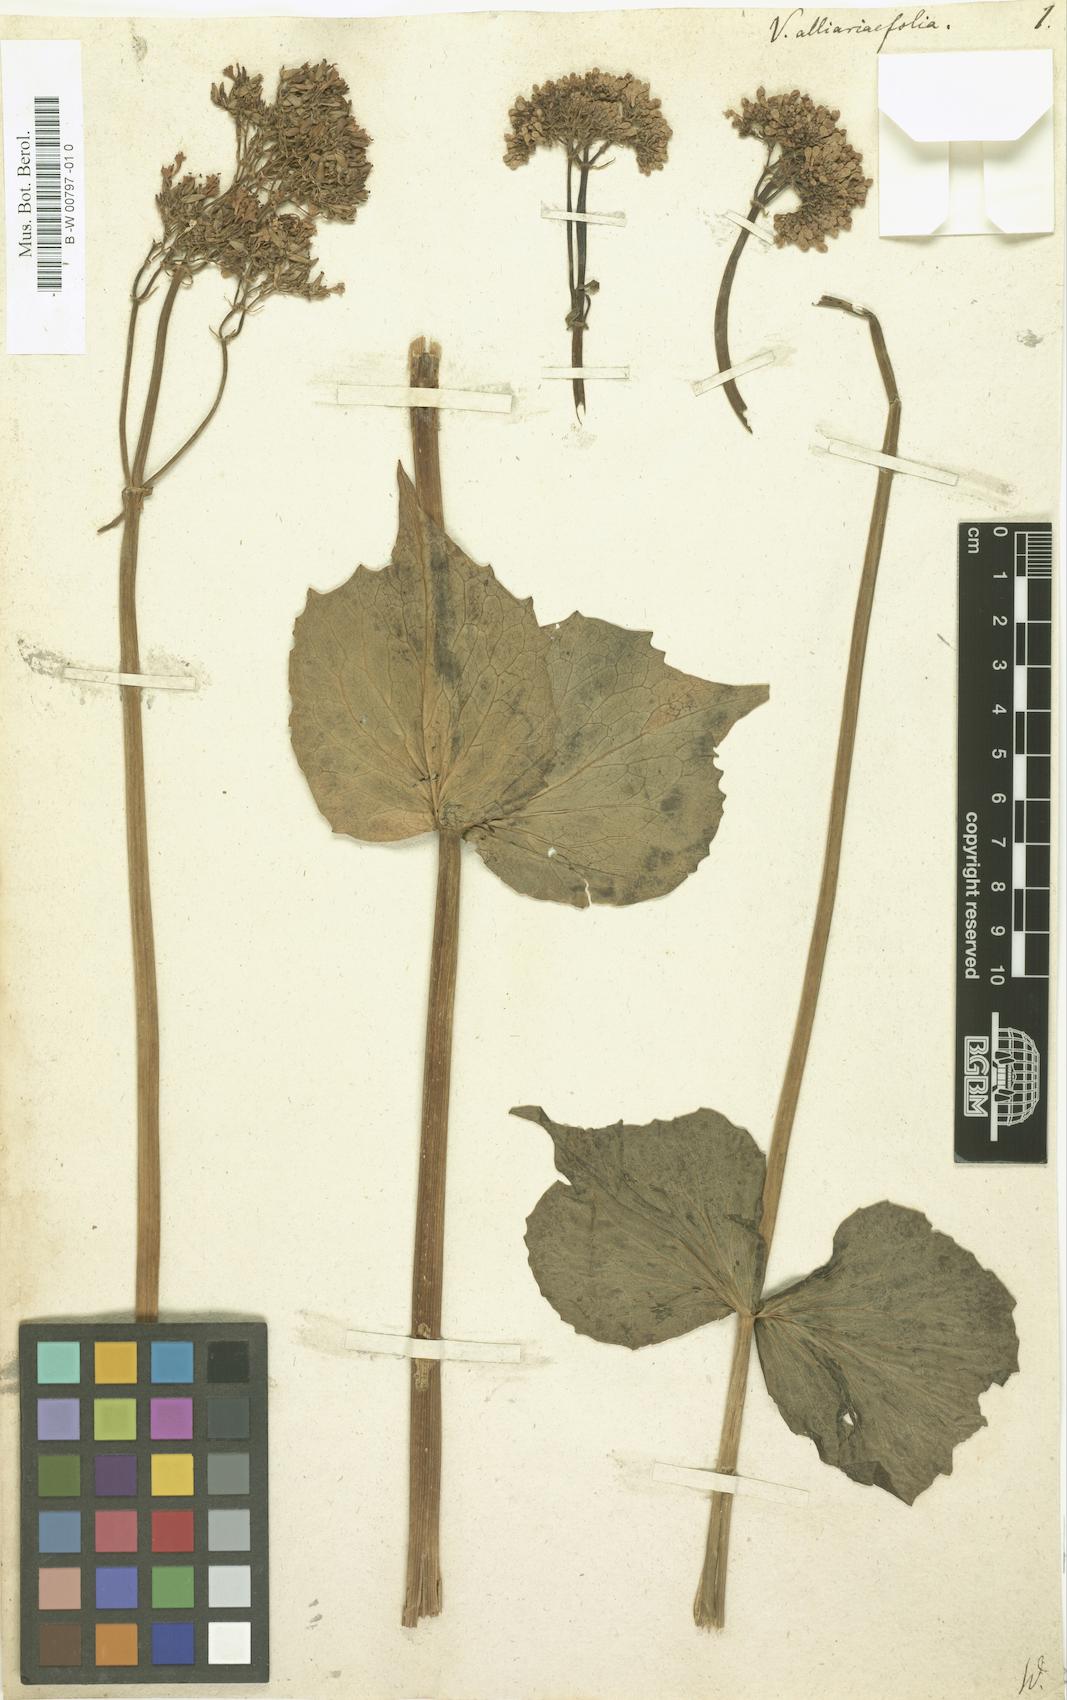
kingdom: Plantae
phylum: Tracheophyta
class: Magnoliopsida
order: Dipsacales
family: Caprifoliaceae
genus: Valeriana
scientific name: Valeriana alliariifolia
